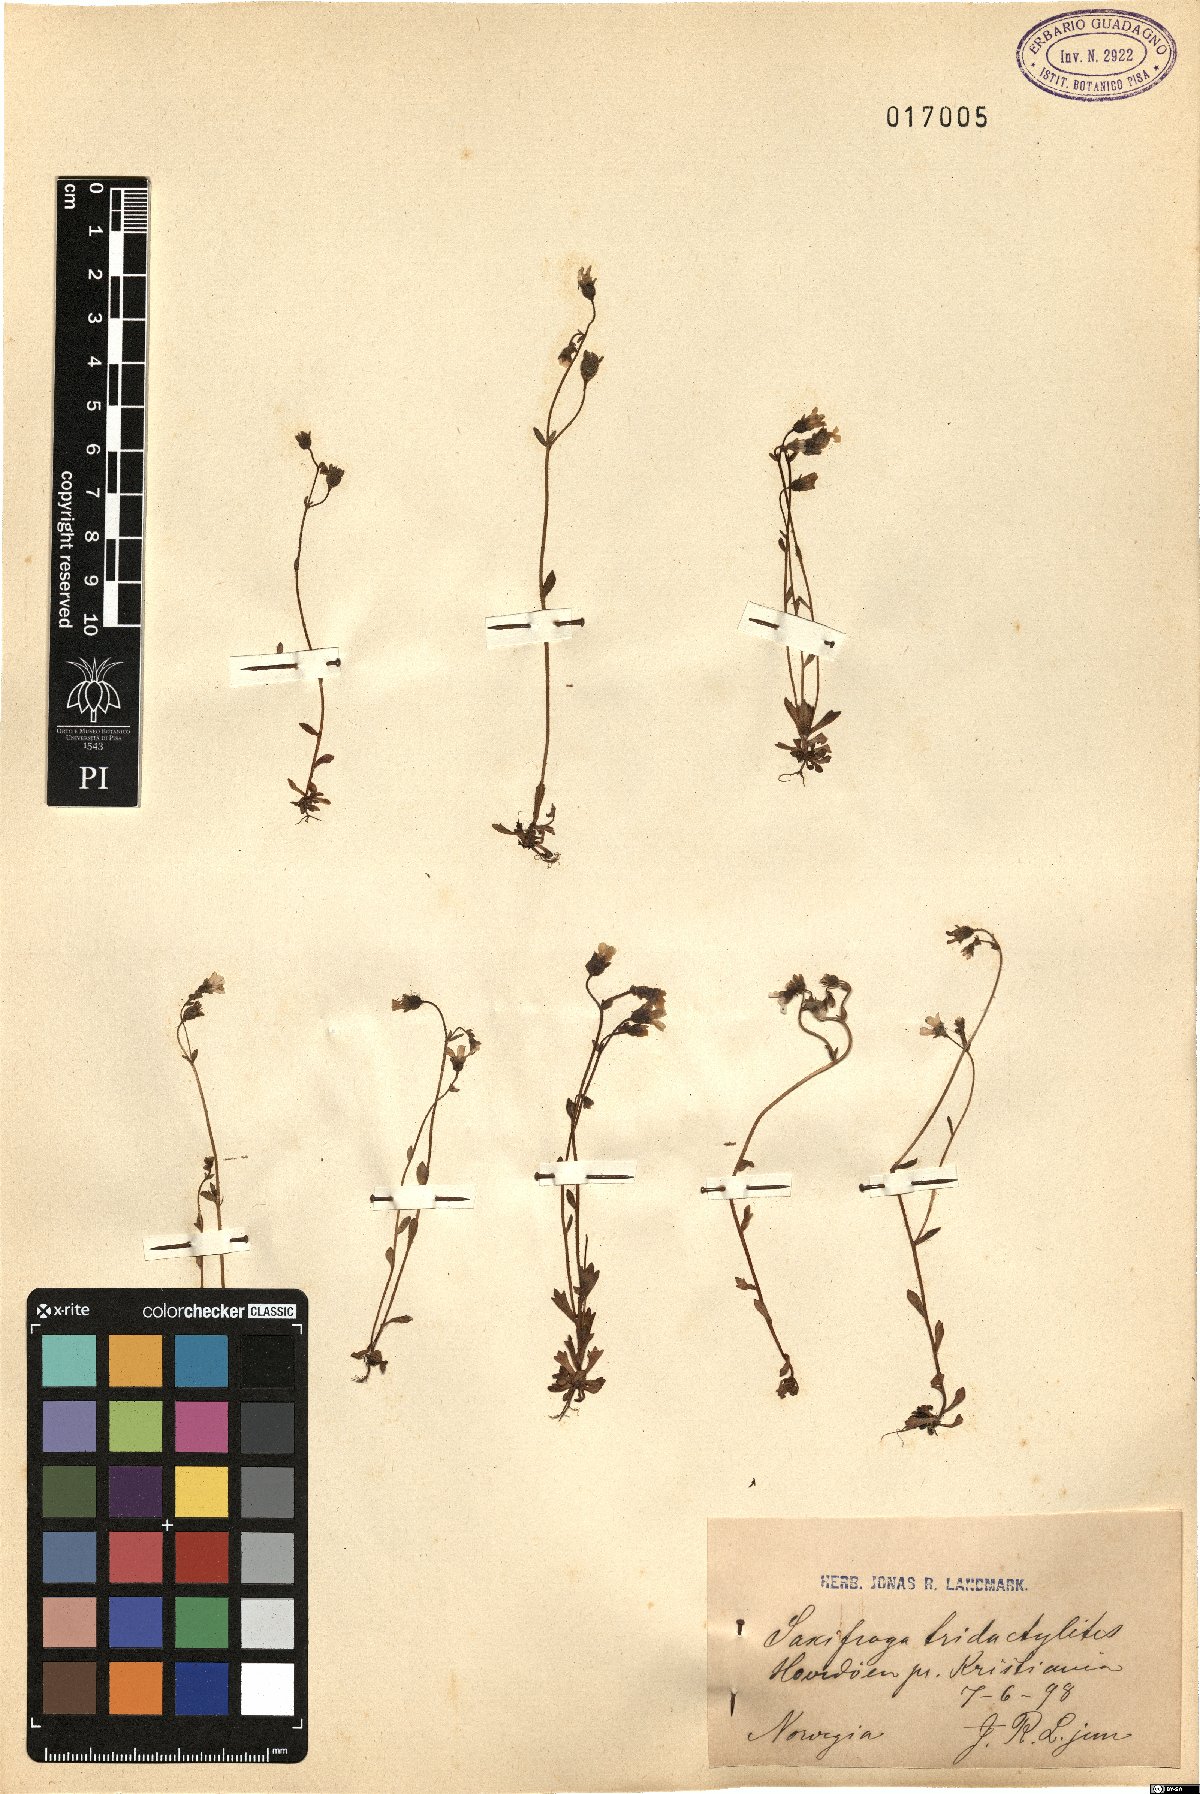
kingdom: Plantae
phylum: Tracheophyta
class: Magnoliopsida
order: Saxifragales
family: Saxifragaceae
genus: Saxifraga
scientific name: Saxifraga tridactylites
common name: Rue-leaved saxifrage
